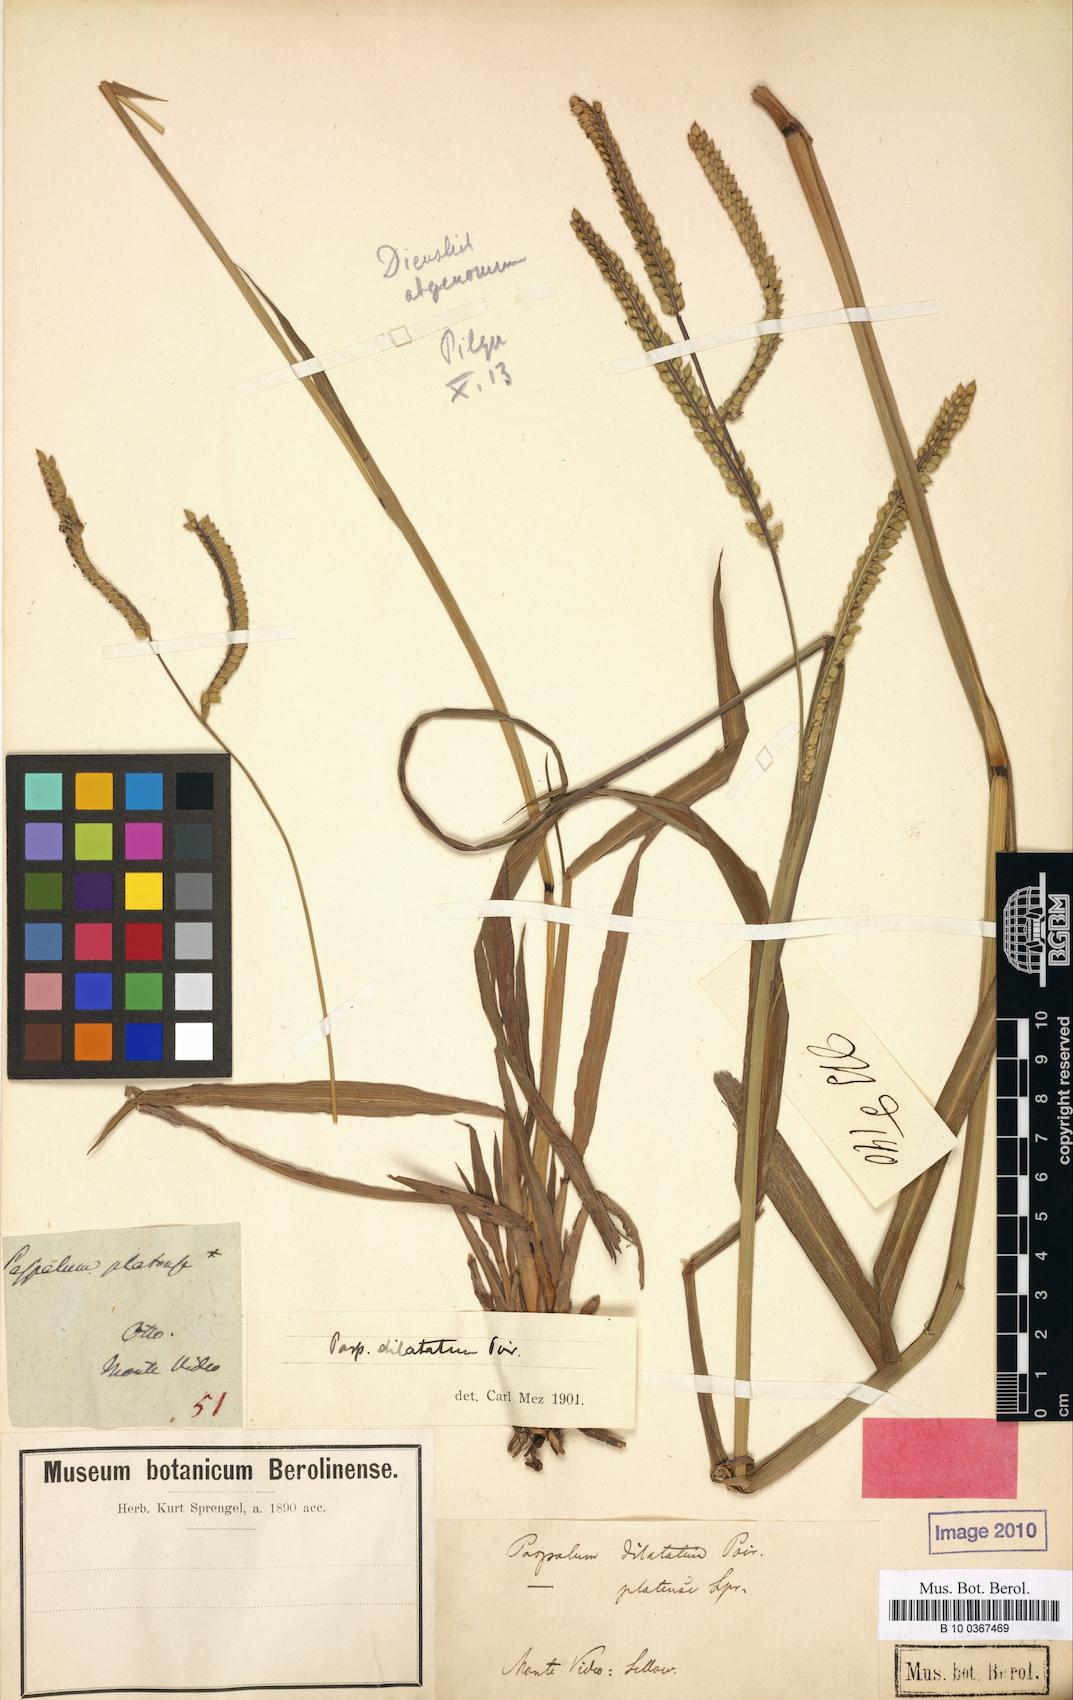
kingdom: Plantae
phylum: Tracheophyta
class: Liliopsida
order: Poales
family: Poaceae
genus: Paspalum
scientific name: Paspalum dilatatum
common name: Dallisgrass
